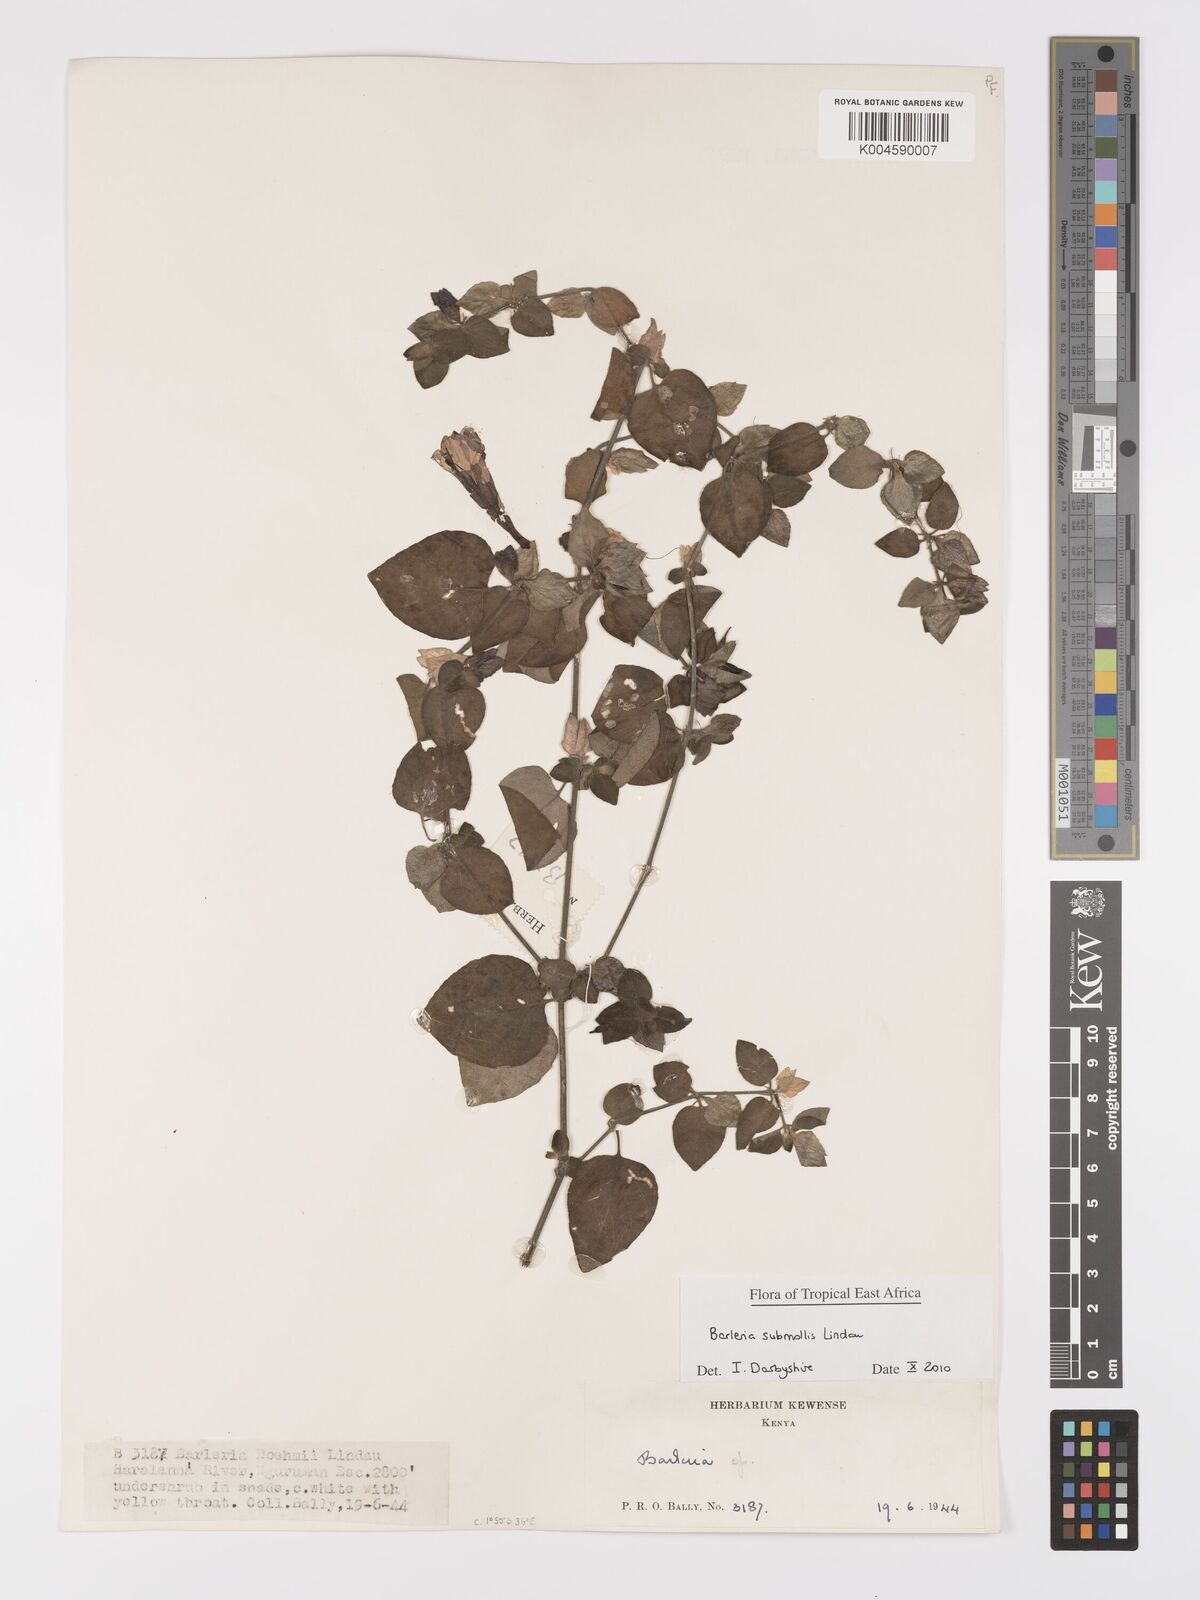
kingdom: Plantae
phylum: Tracheophyta
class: Magnoliopsida
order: Lamiales
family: Acanthaceae
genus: Barleria
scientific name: Barleria submollis
